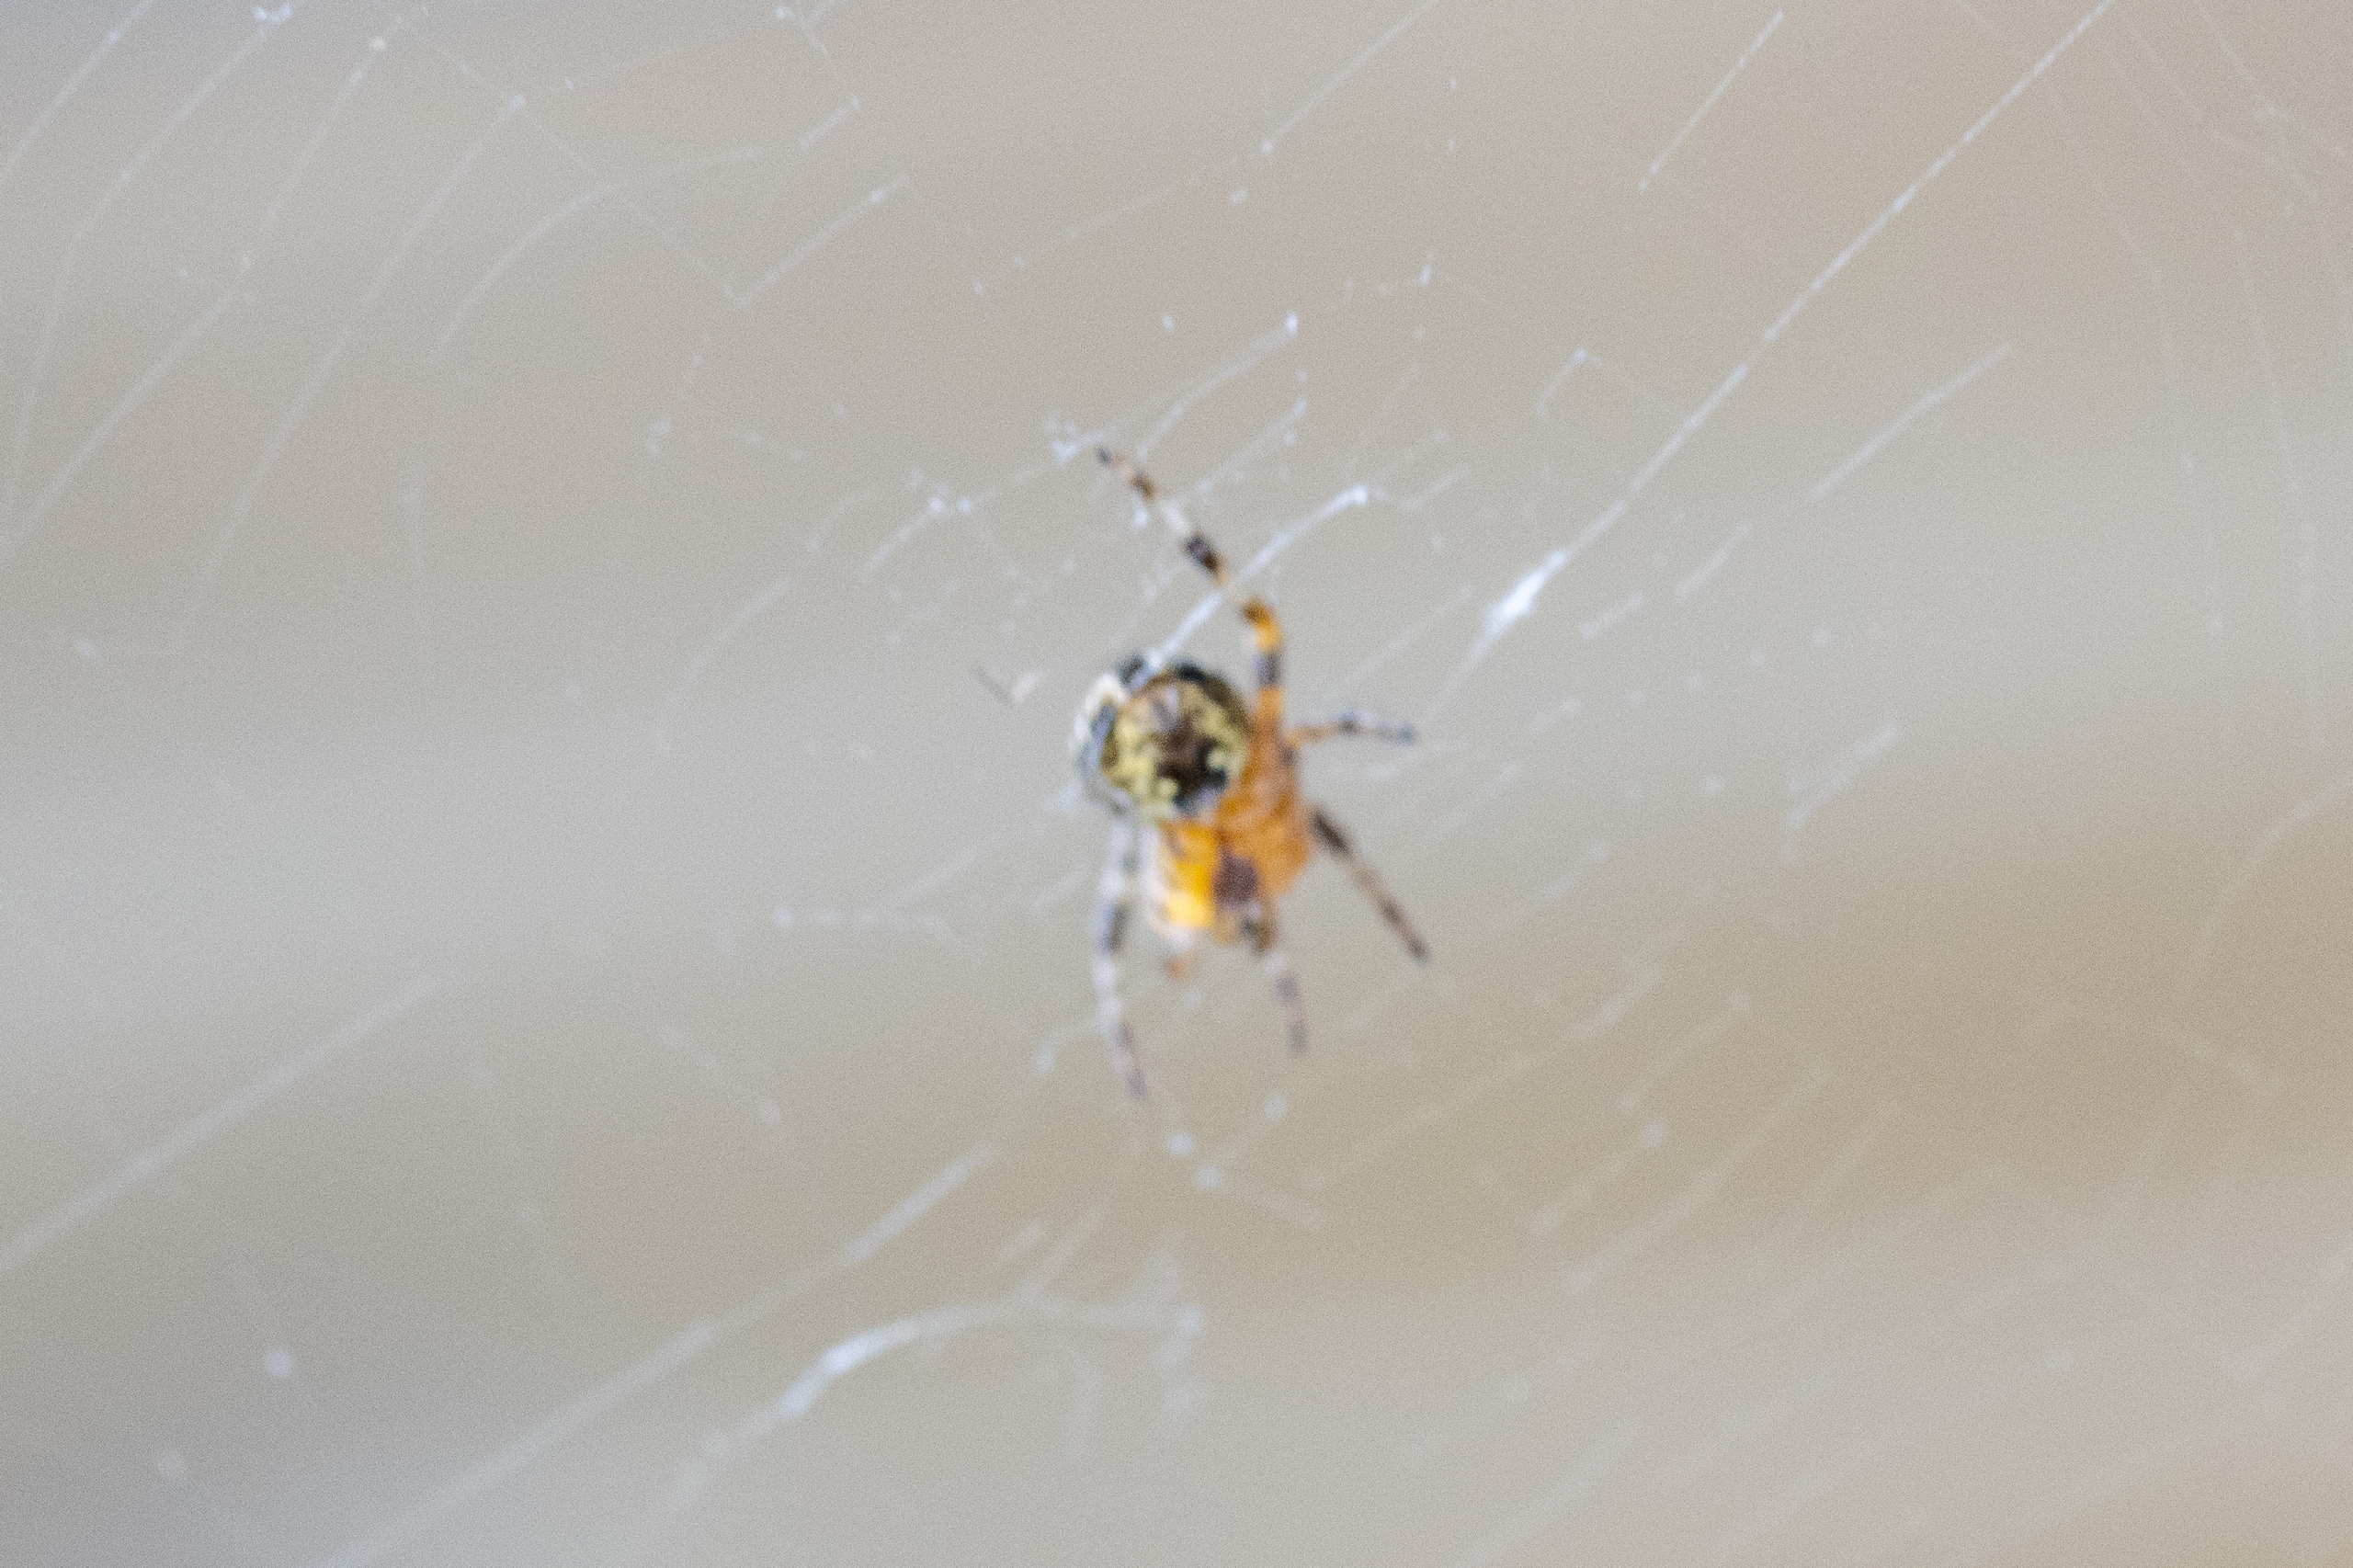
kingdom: Animalia
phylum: Arthropoda
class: Arachnida
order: Araneae
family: Araneidae
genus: Araneus
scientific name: Araneus diadematus
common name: Korsedderkop
